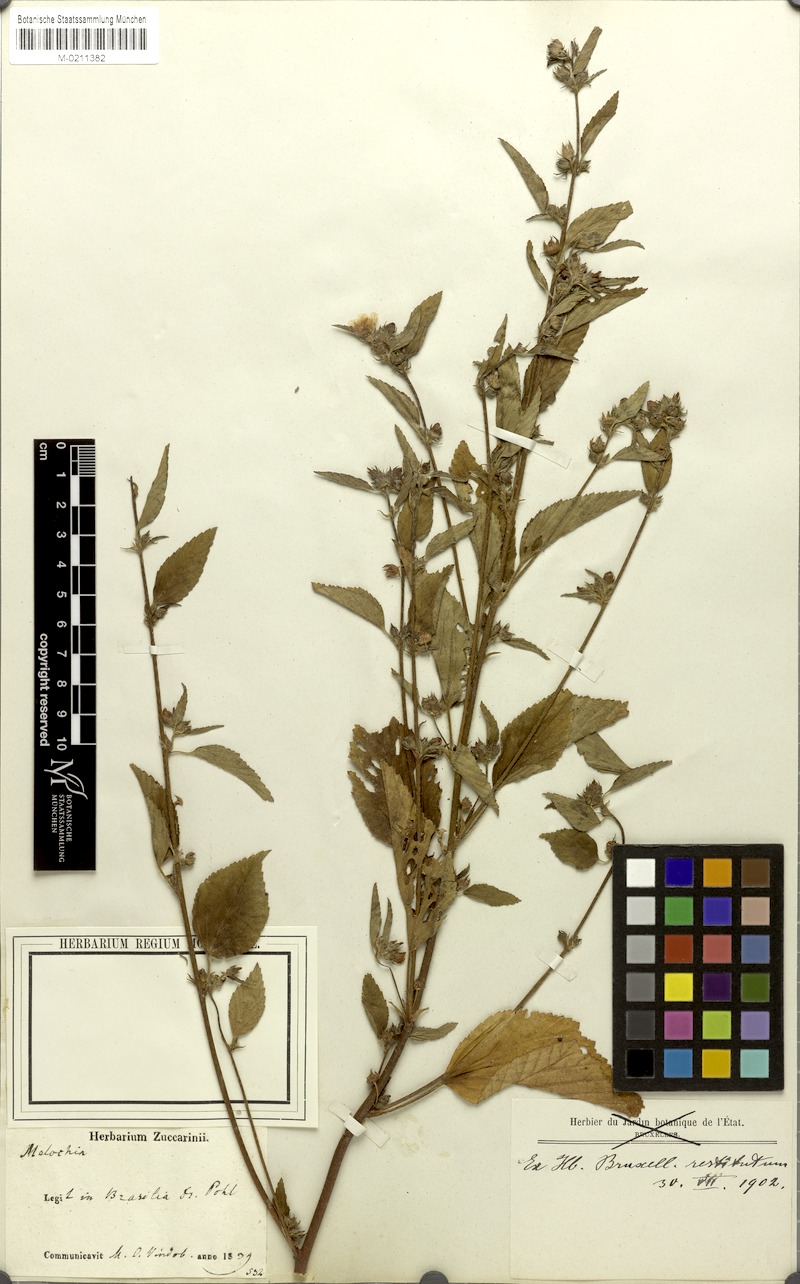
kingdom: Plantae
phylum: Tracheophyta
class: Magnoliopsida
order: Malvales
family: Malvaceae
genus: Malachra
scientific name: Malachra
